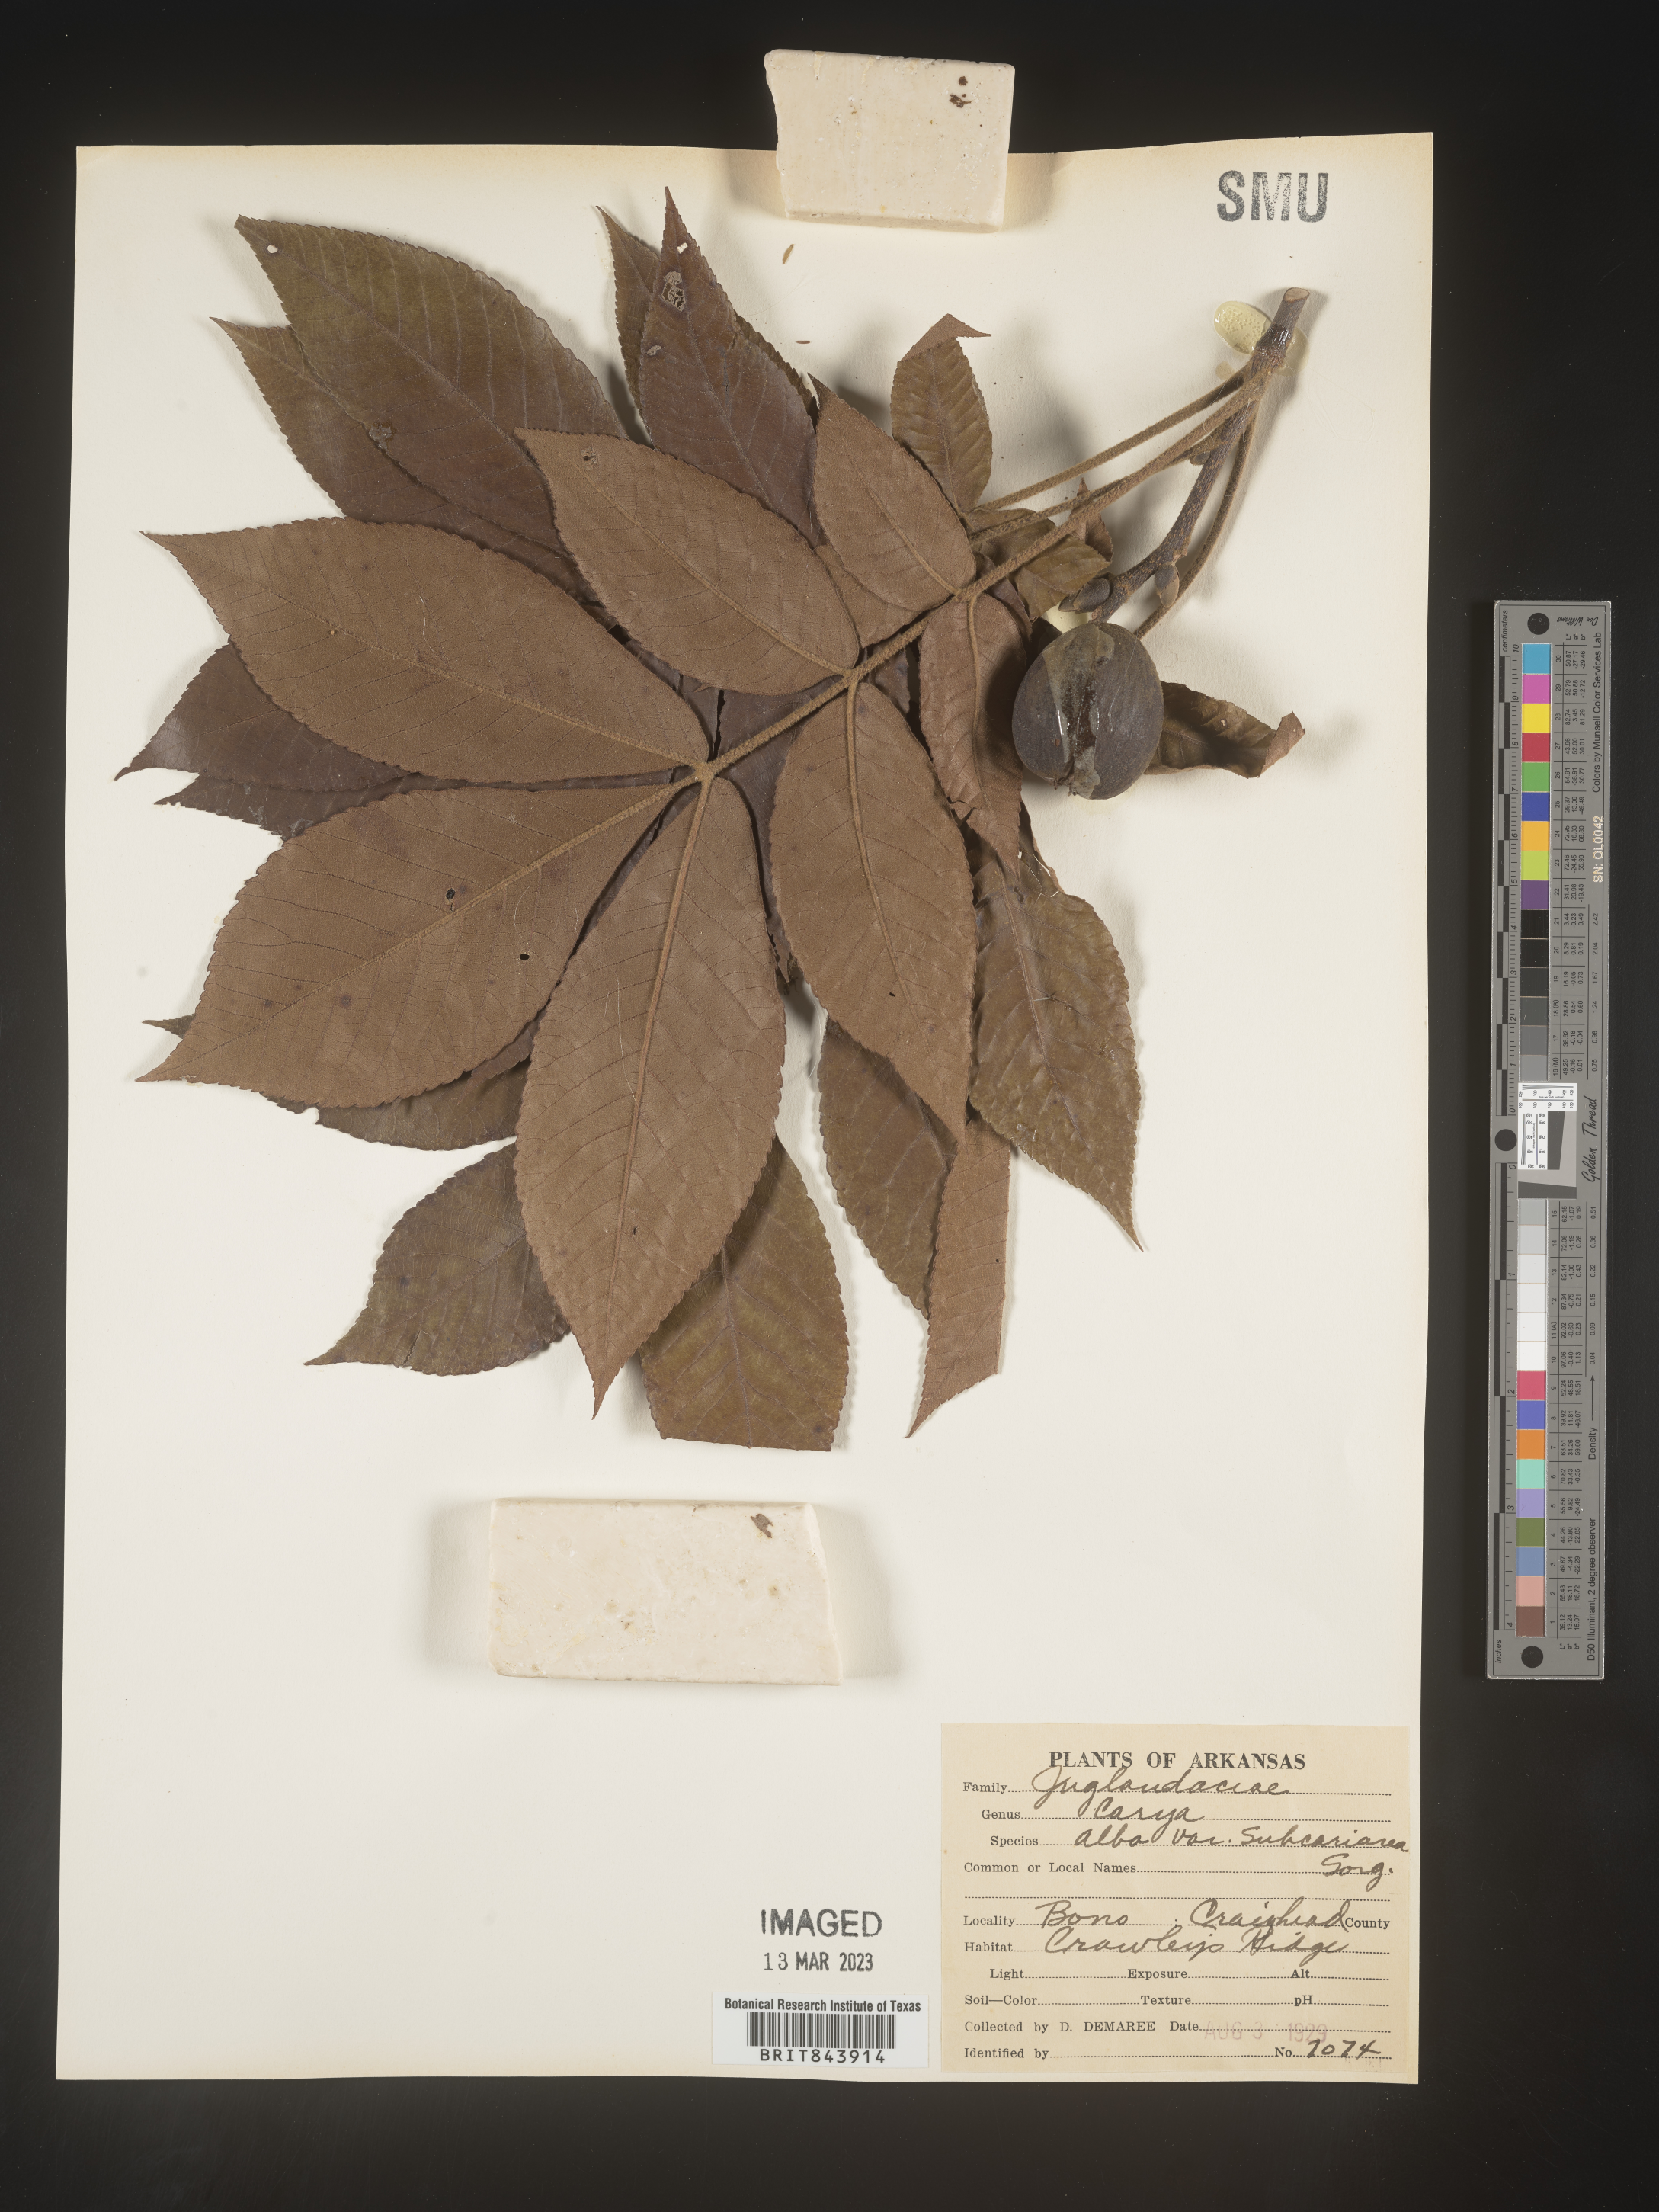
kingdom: Plantae
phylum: Tracheophyta
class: Magnoliopsida
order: Fagales
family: Juglandaceae
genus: Carya
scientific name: Carya alba
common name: Mockernut hickory
